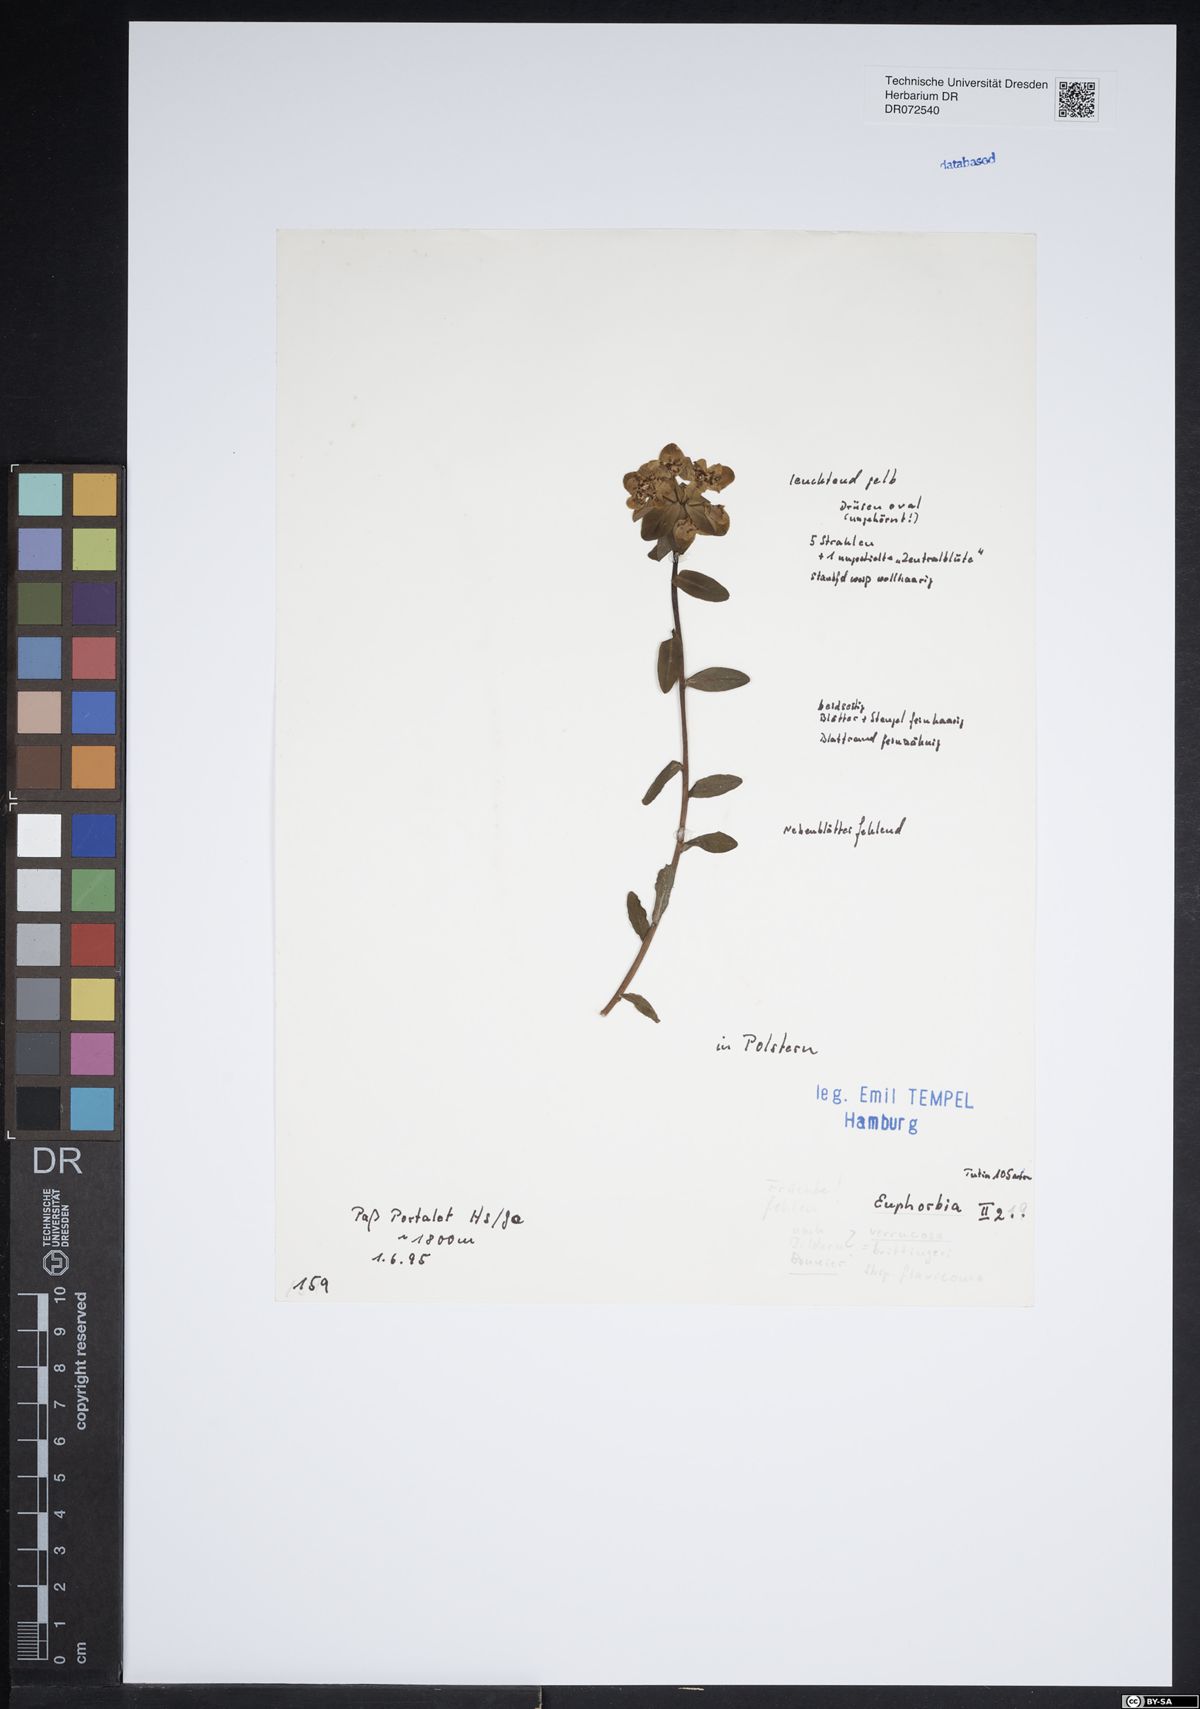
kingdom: Plantae
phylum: Tracheophyta
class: Magnoliopsida
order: Malpighiales
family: Euphorbiaceae
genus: Euphorbia
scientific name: Euphorbia verrucosa
